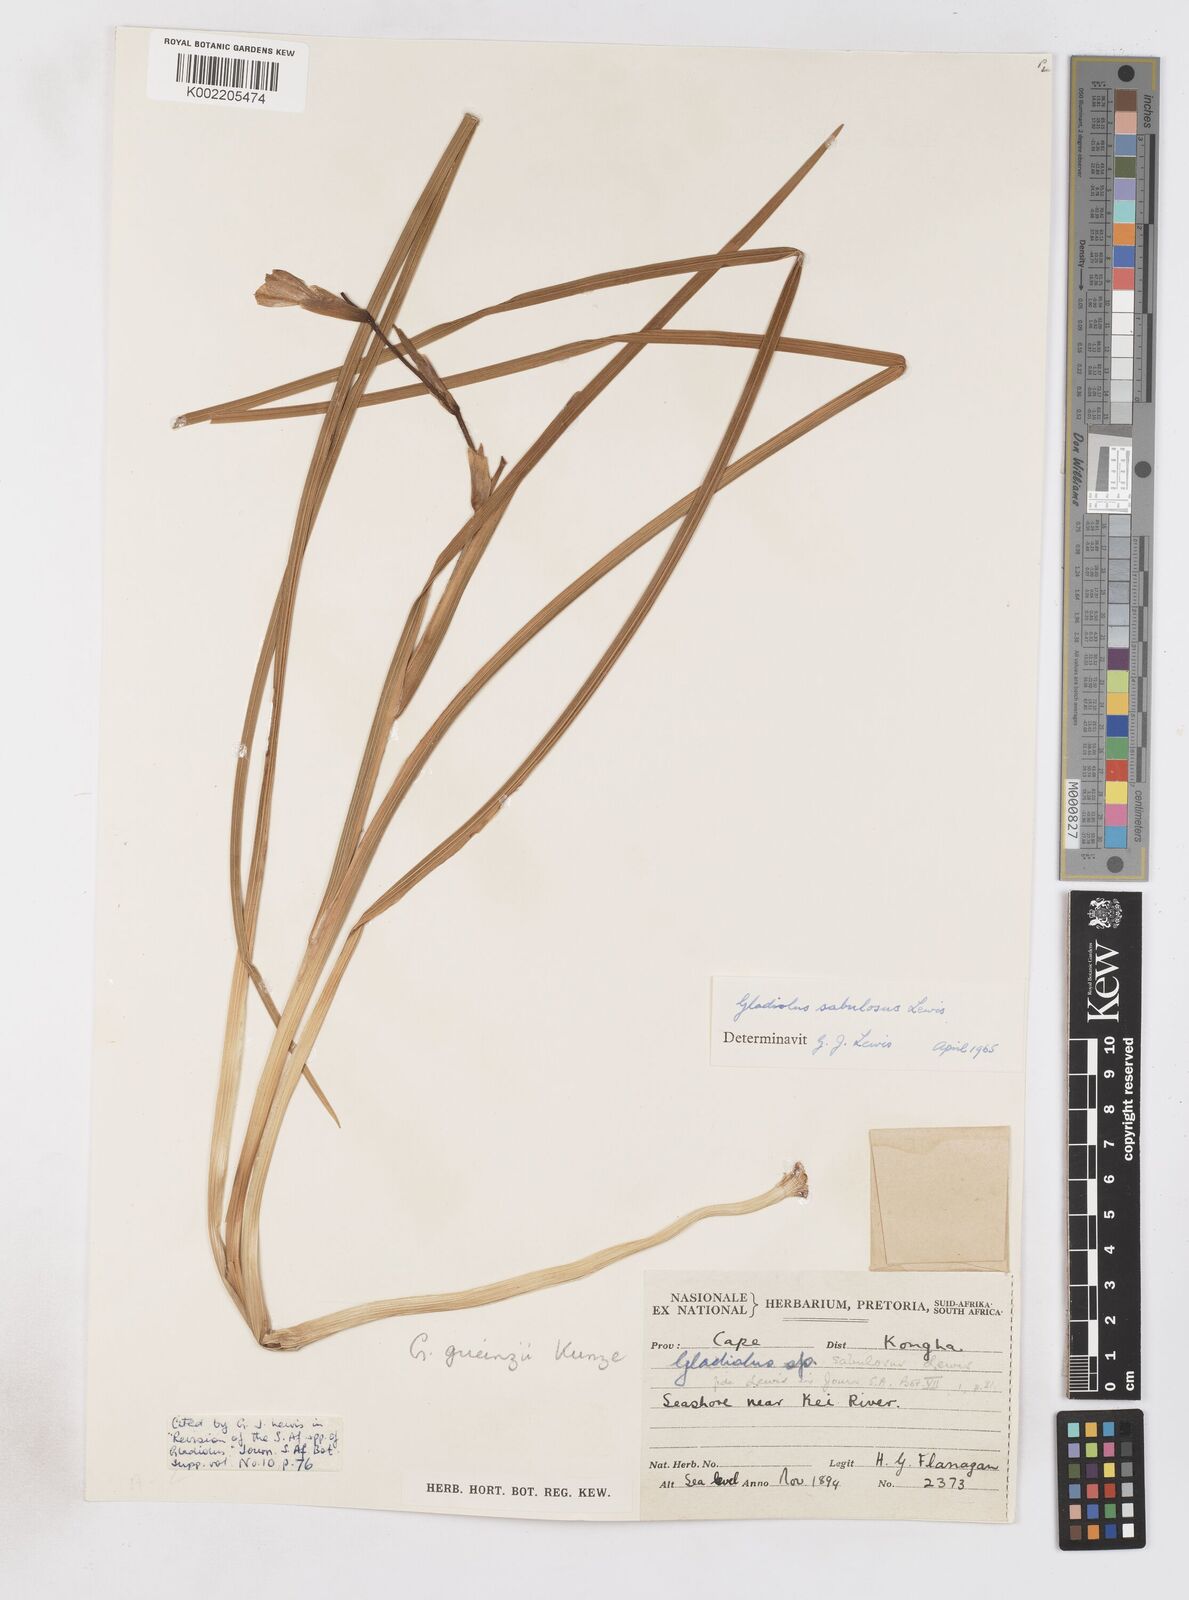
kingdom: Plantae
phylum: Tracheophyta
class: Liliopsida
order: Asparagales
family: Iridaceae
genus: Gladiolus
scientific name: Gladiolus gueinzii
